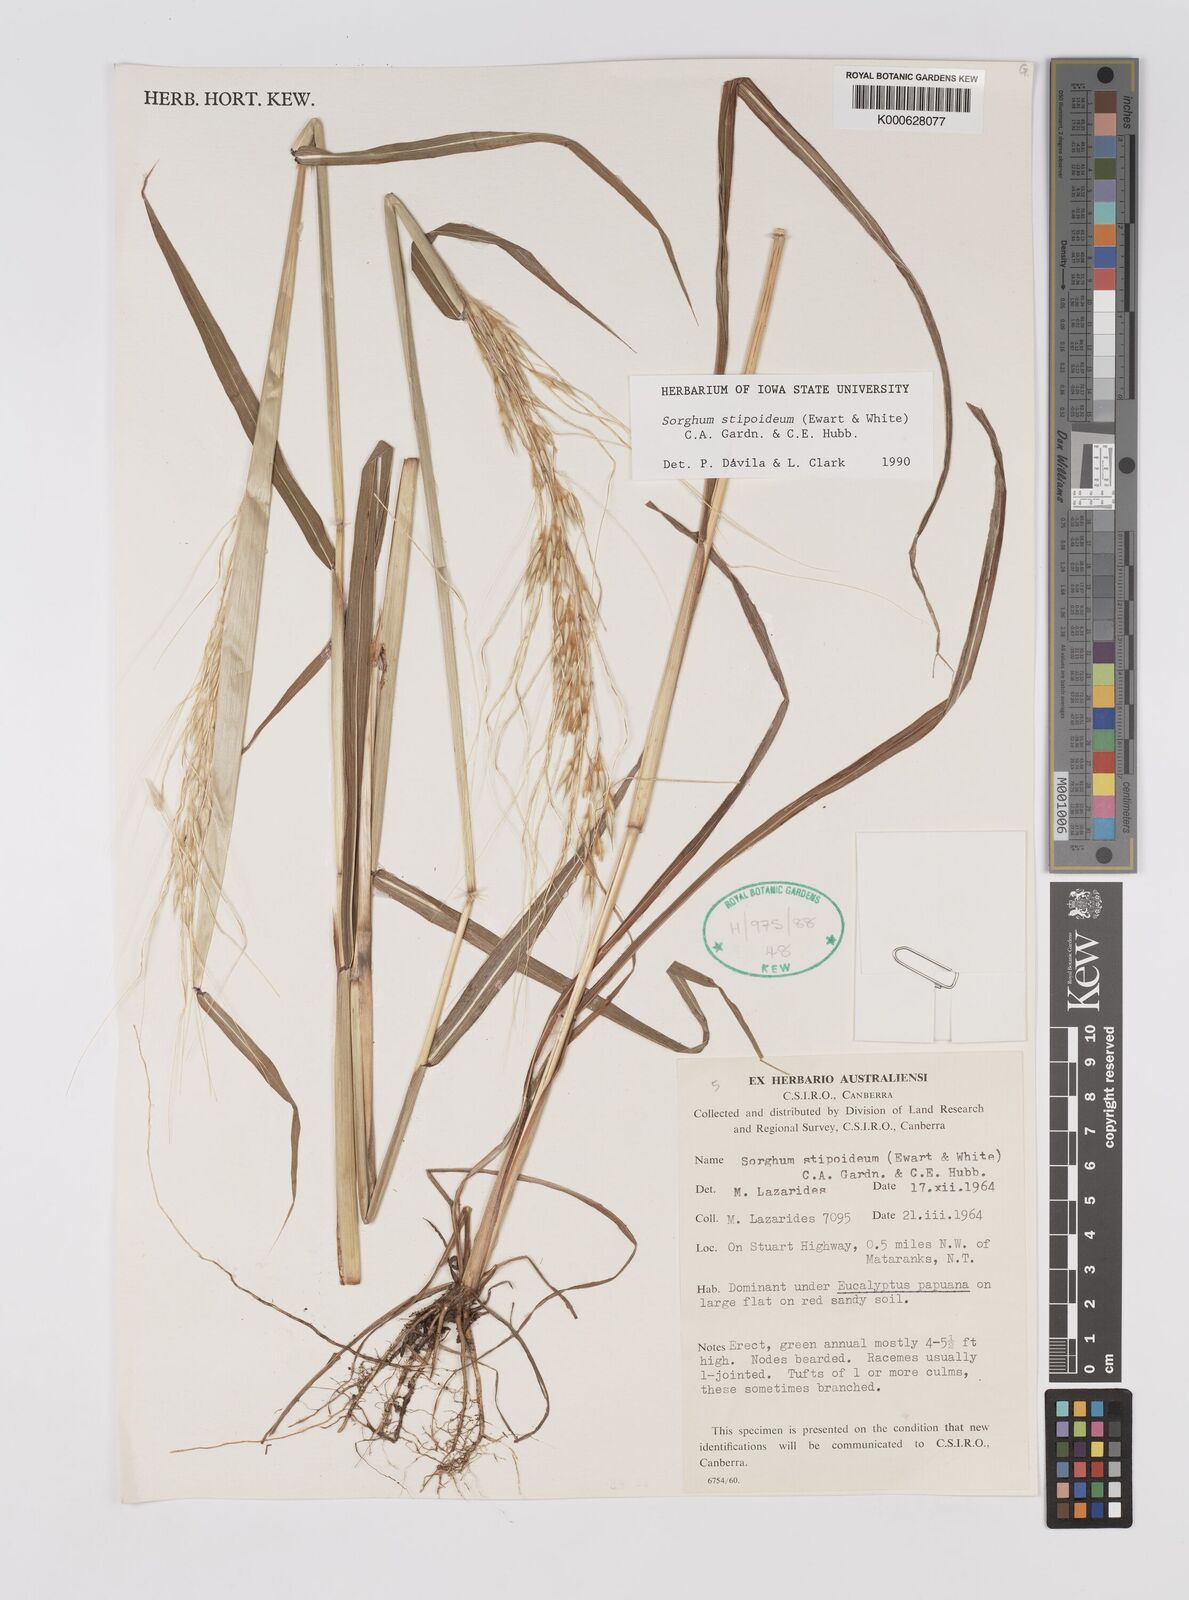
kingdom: Plantae
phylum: Tracheophyta
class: Liliopsida
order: Poales
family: Poaceae
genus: Sarga
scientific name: Sarga stipoidea
